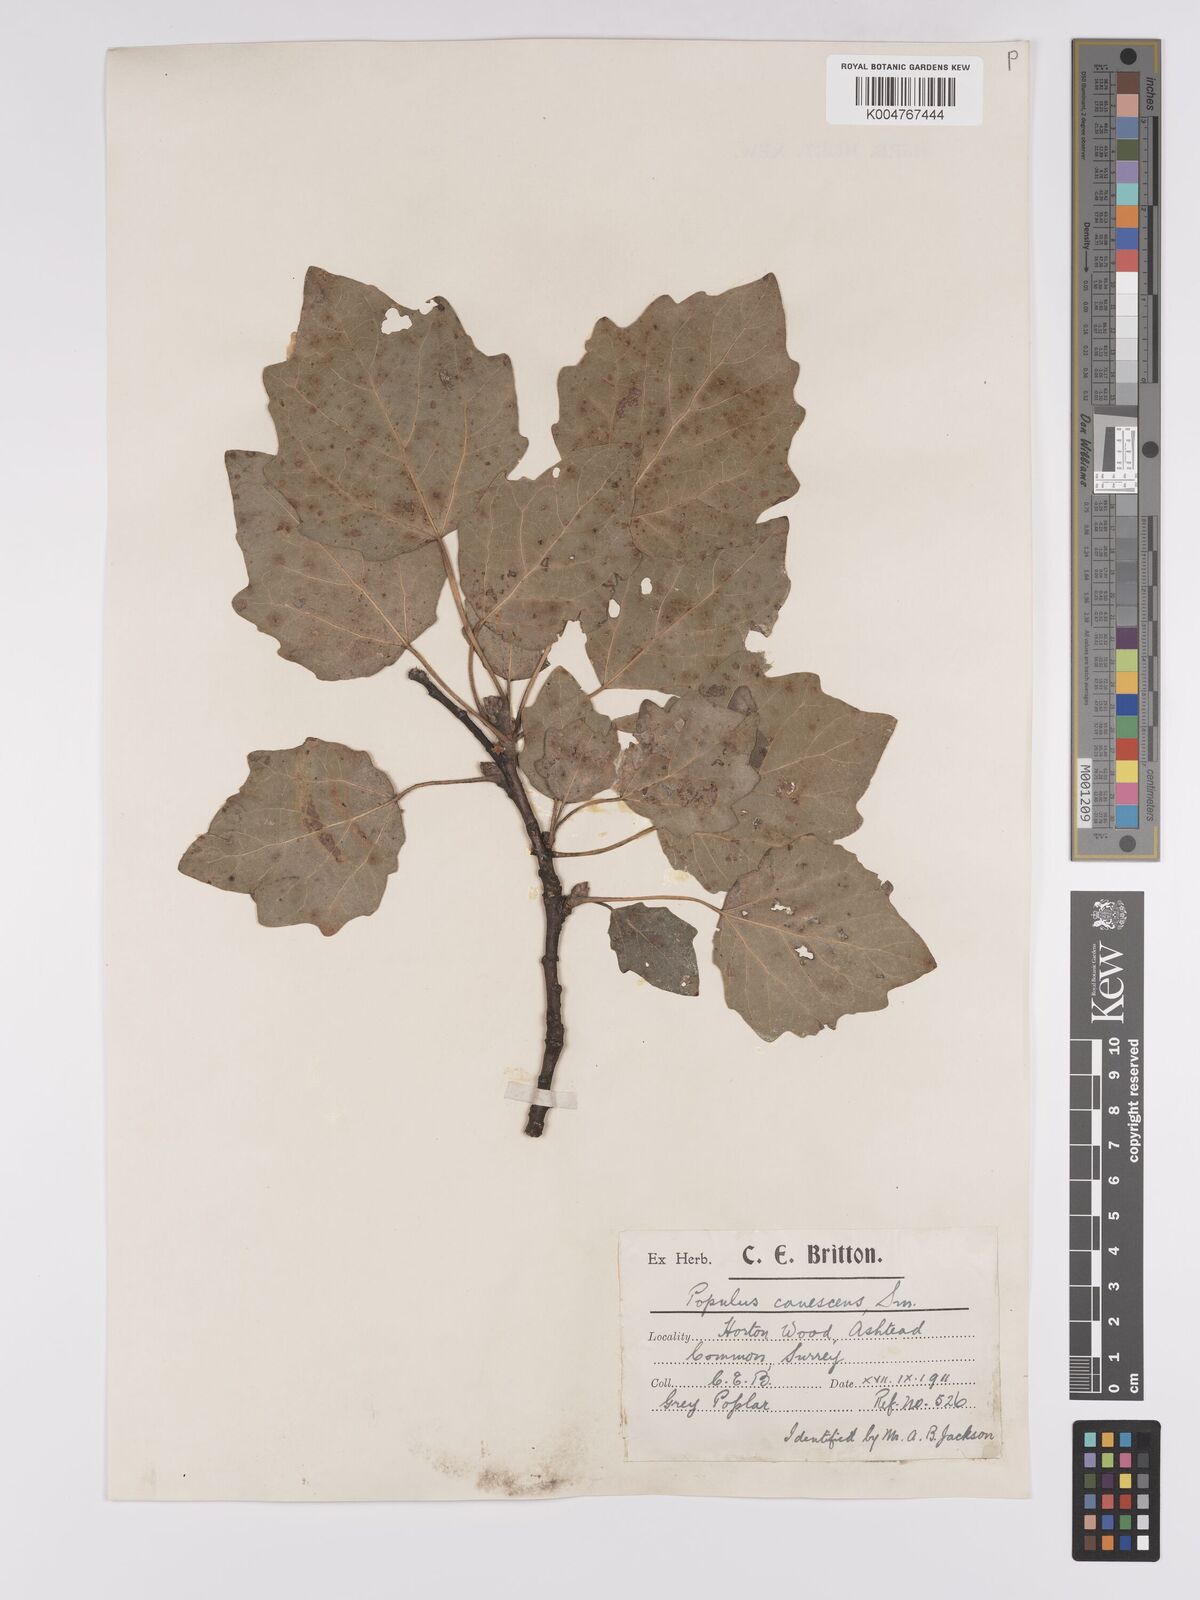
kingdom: Plantae
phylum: Tracheophyta
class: Magnoliopsida
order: Malpighiales
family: Salicaceae
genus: Populus
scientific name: Populus canescens
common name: Gray poplar
